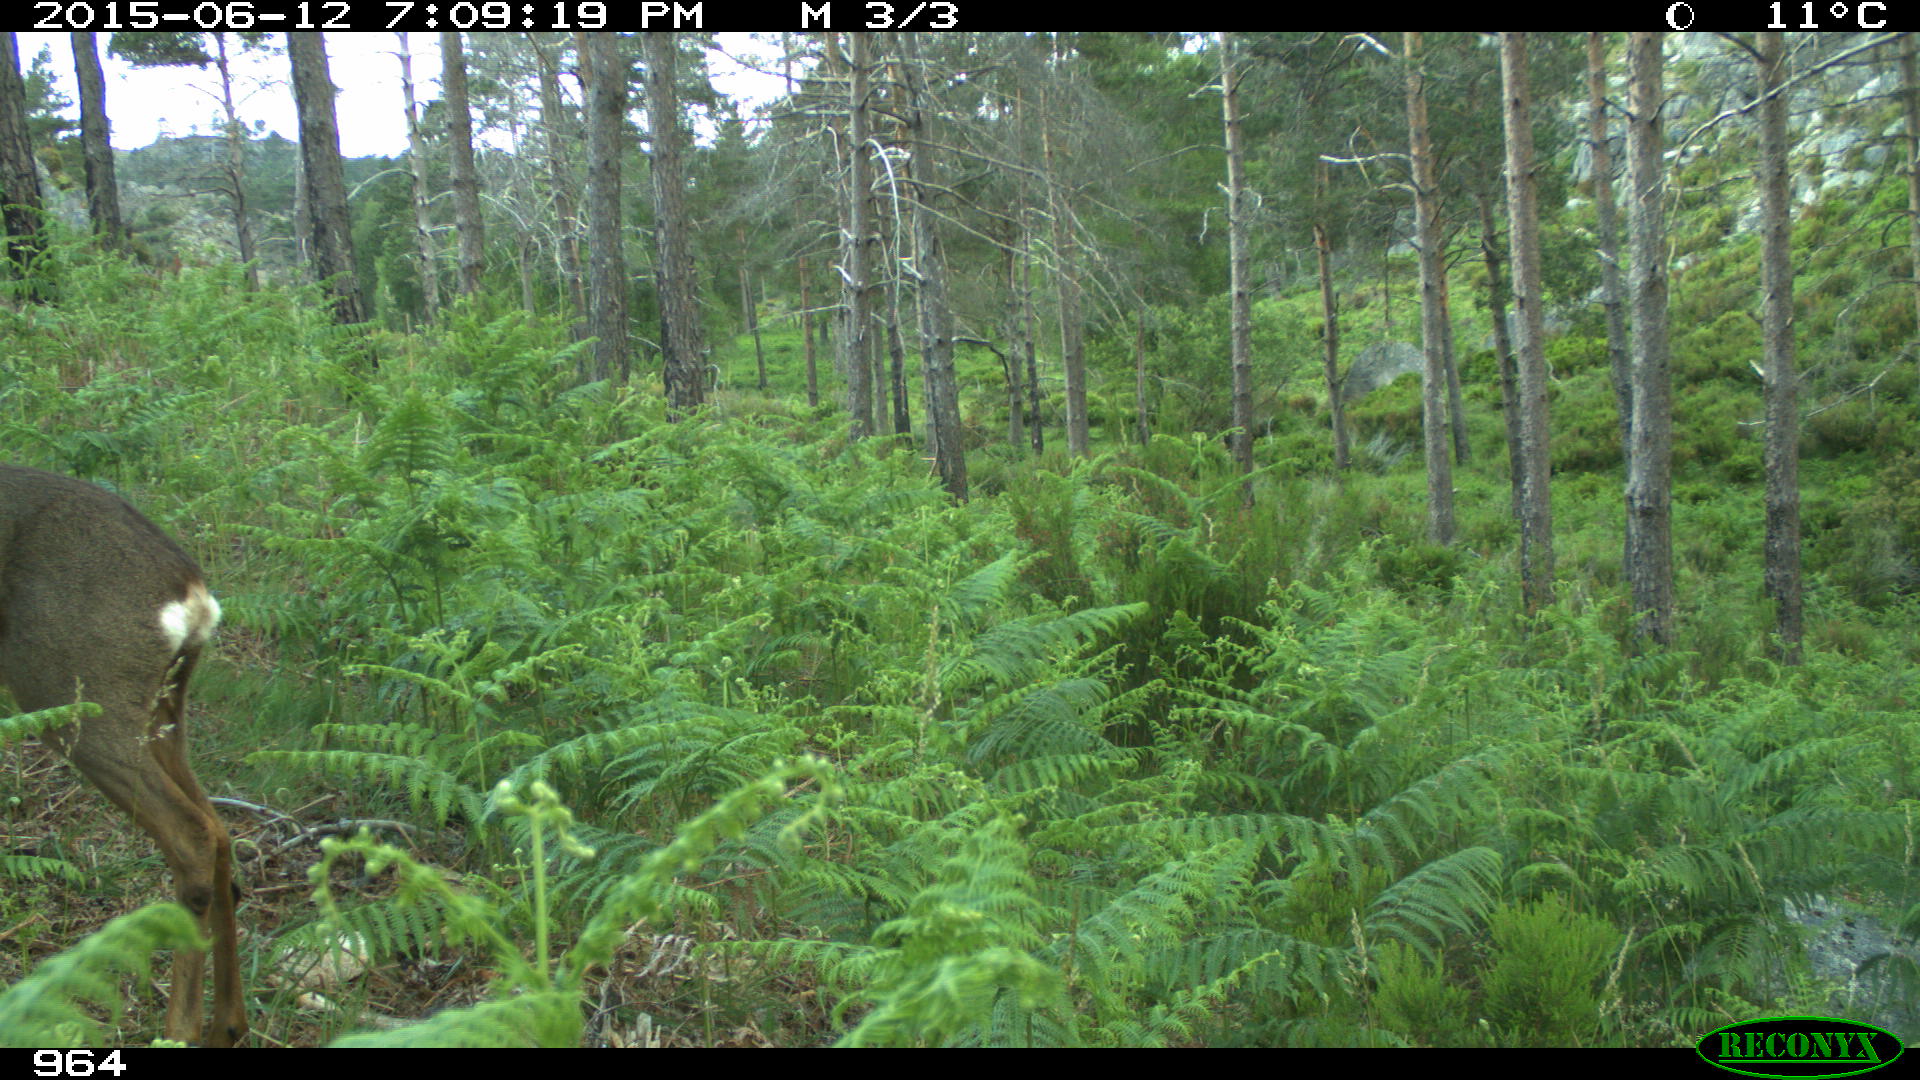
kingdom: Animalia
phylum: Chordata
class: Mammalia
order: Artiodactyla
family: Cervidae
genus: Capreolus
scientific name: Capreolus capreolus
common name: Western roe deer
